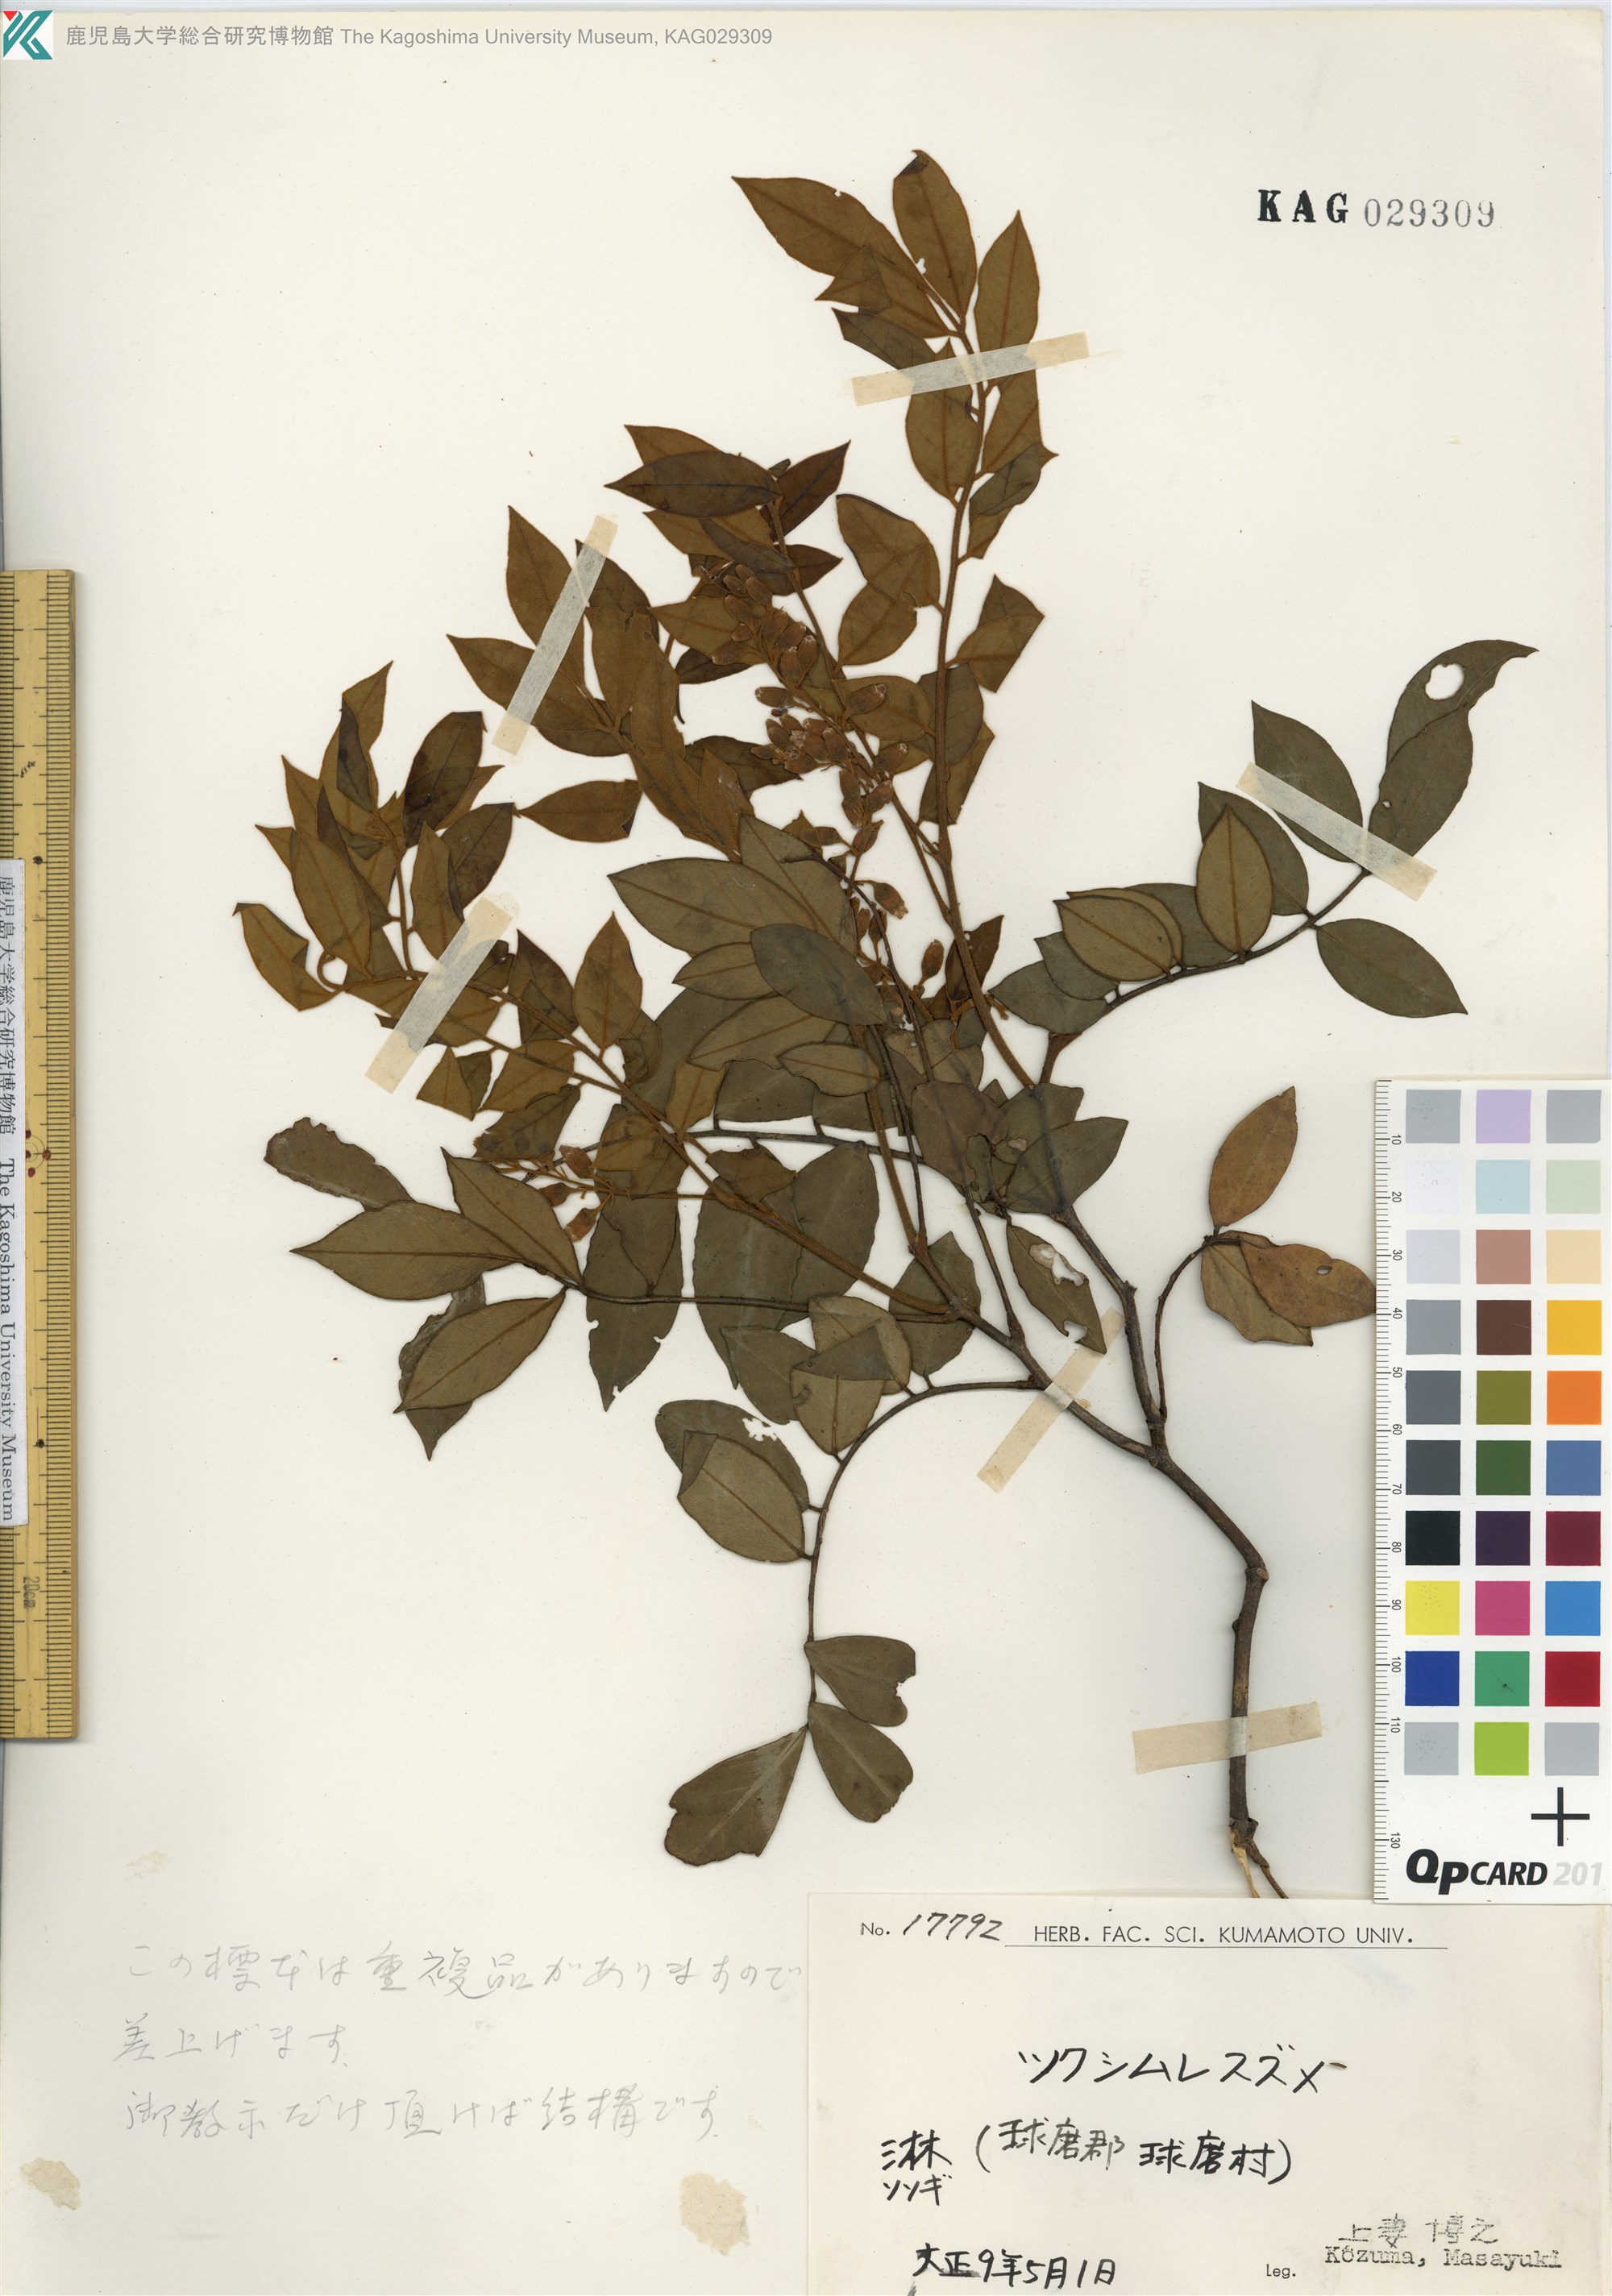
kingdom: Plantae
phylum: Tracheophyta
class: Magnoliopsida
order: Fabales
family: Fabaceae
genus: Sophora
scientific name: Sophora franchetiana
